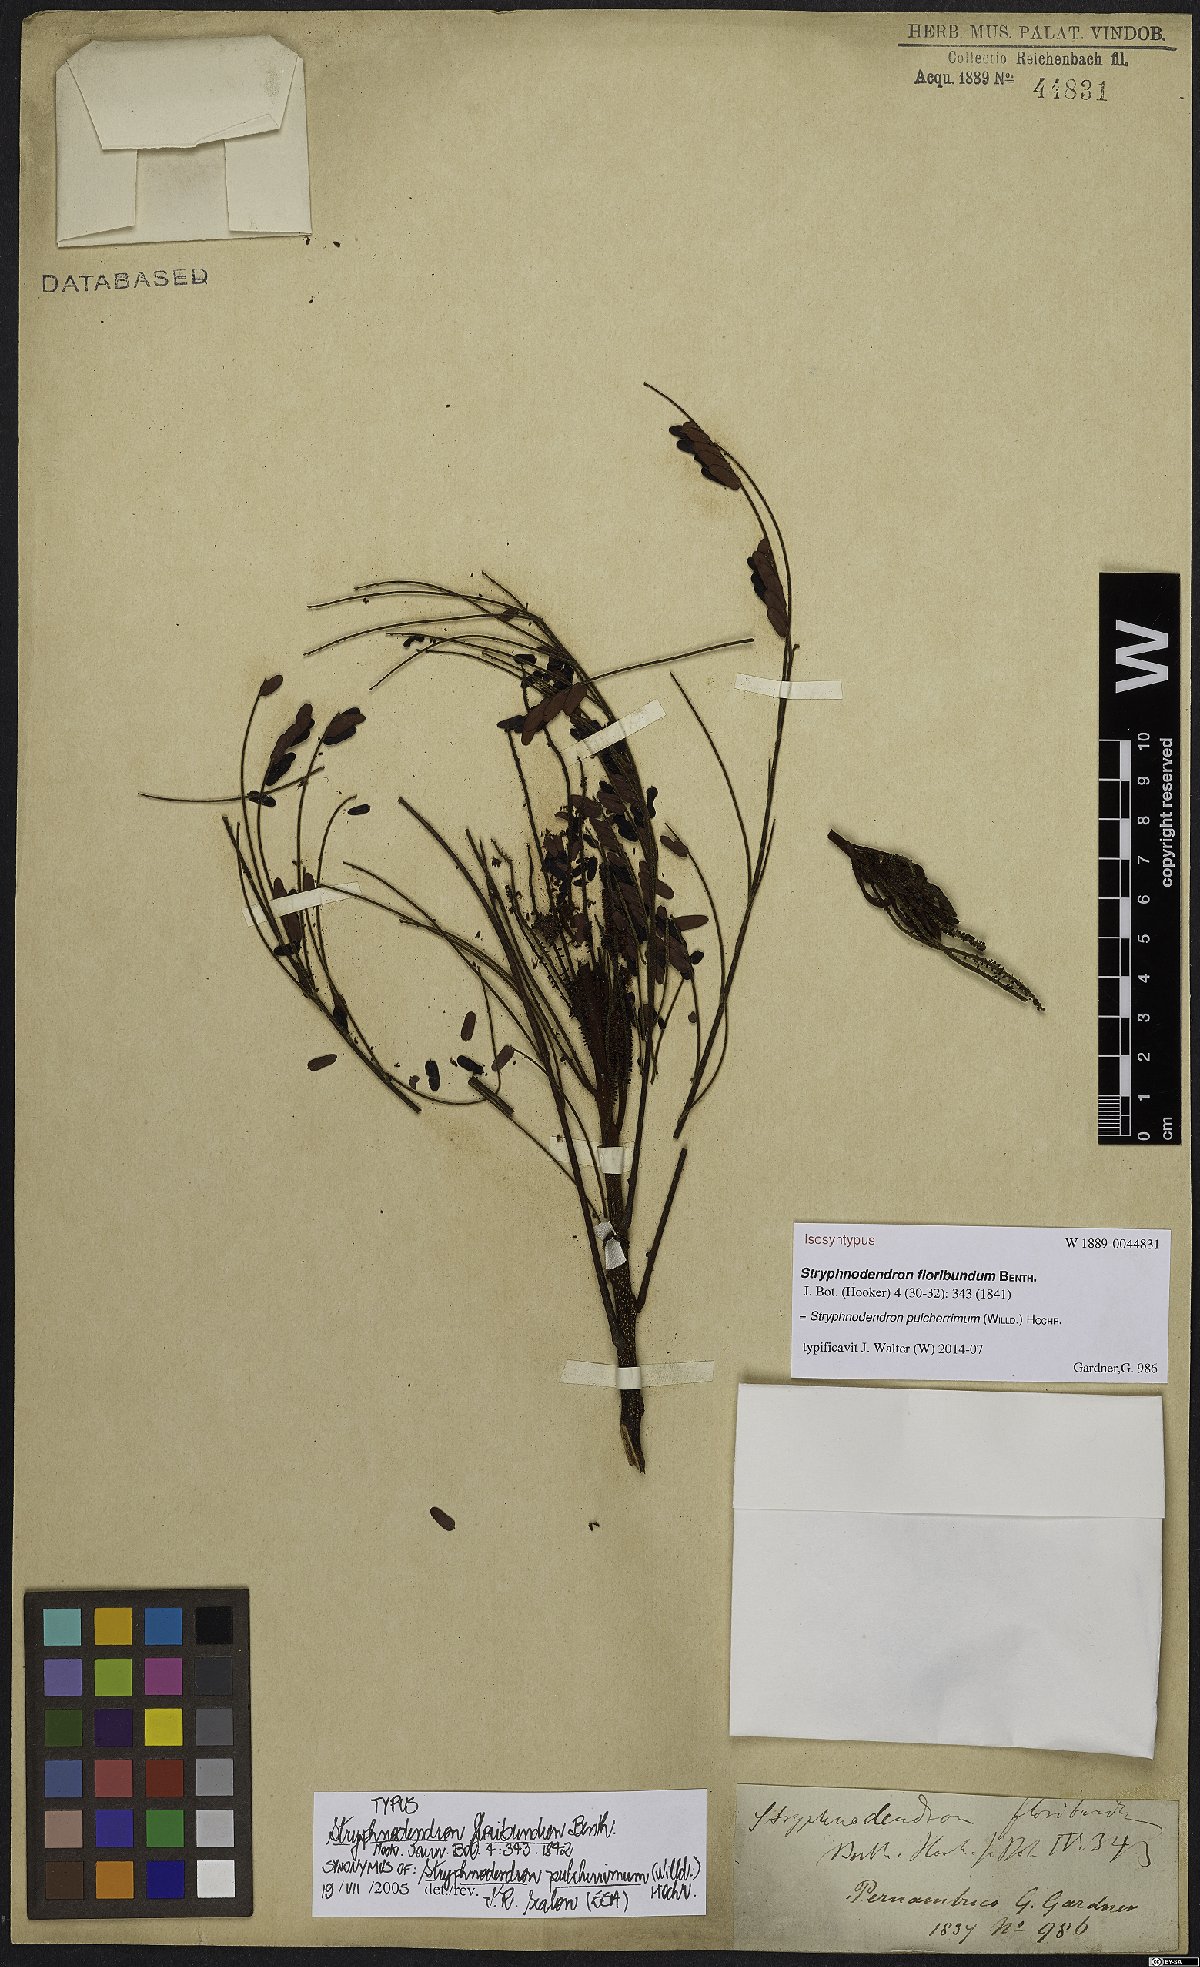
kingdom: Plantae
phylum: Tracheophyta
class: Magnoliopsida
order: Fabales
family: Fabaceae
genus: Stryphnodendron
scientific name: Stryphnodendron pulcherrimum
